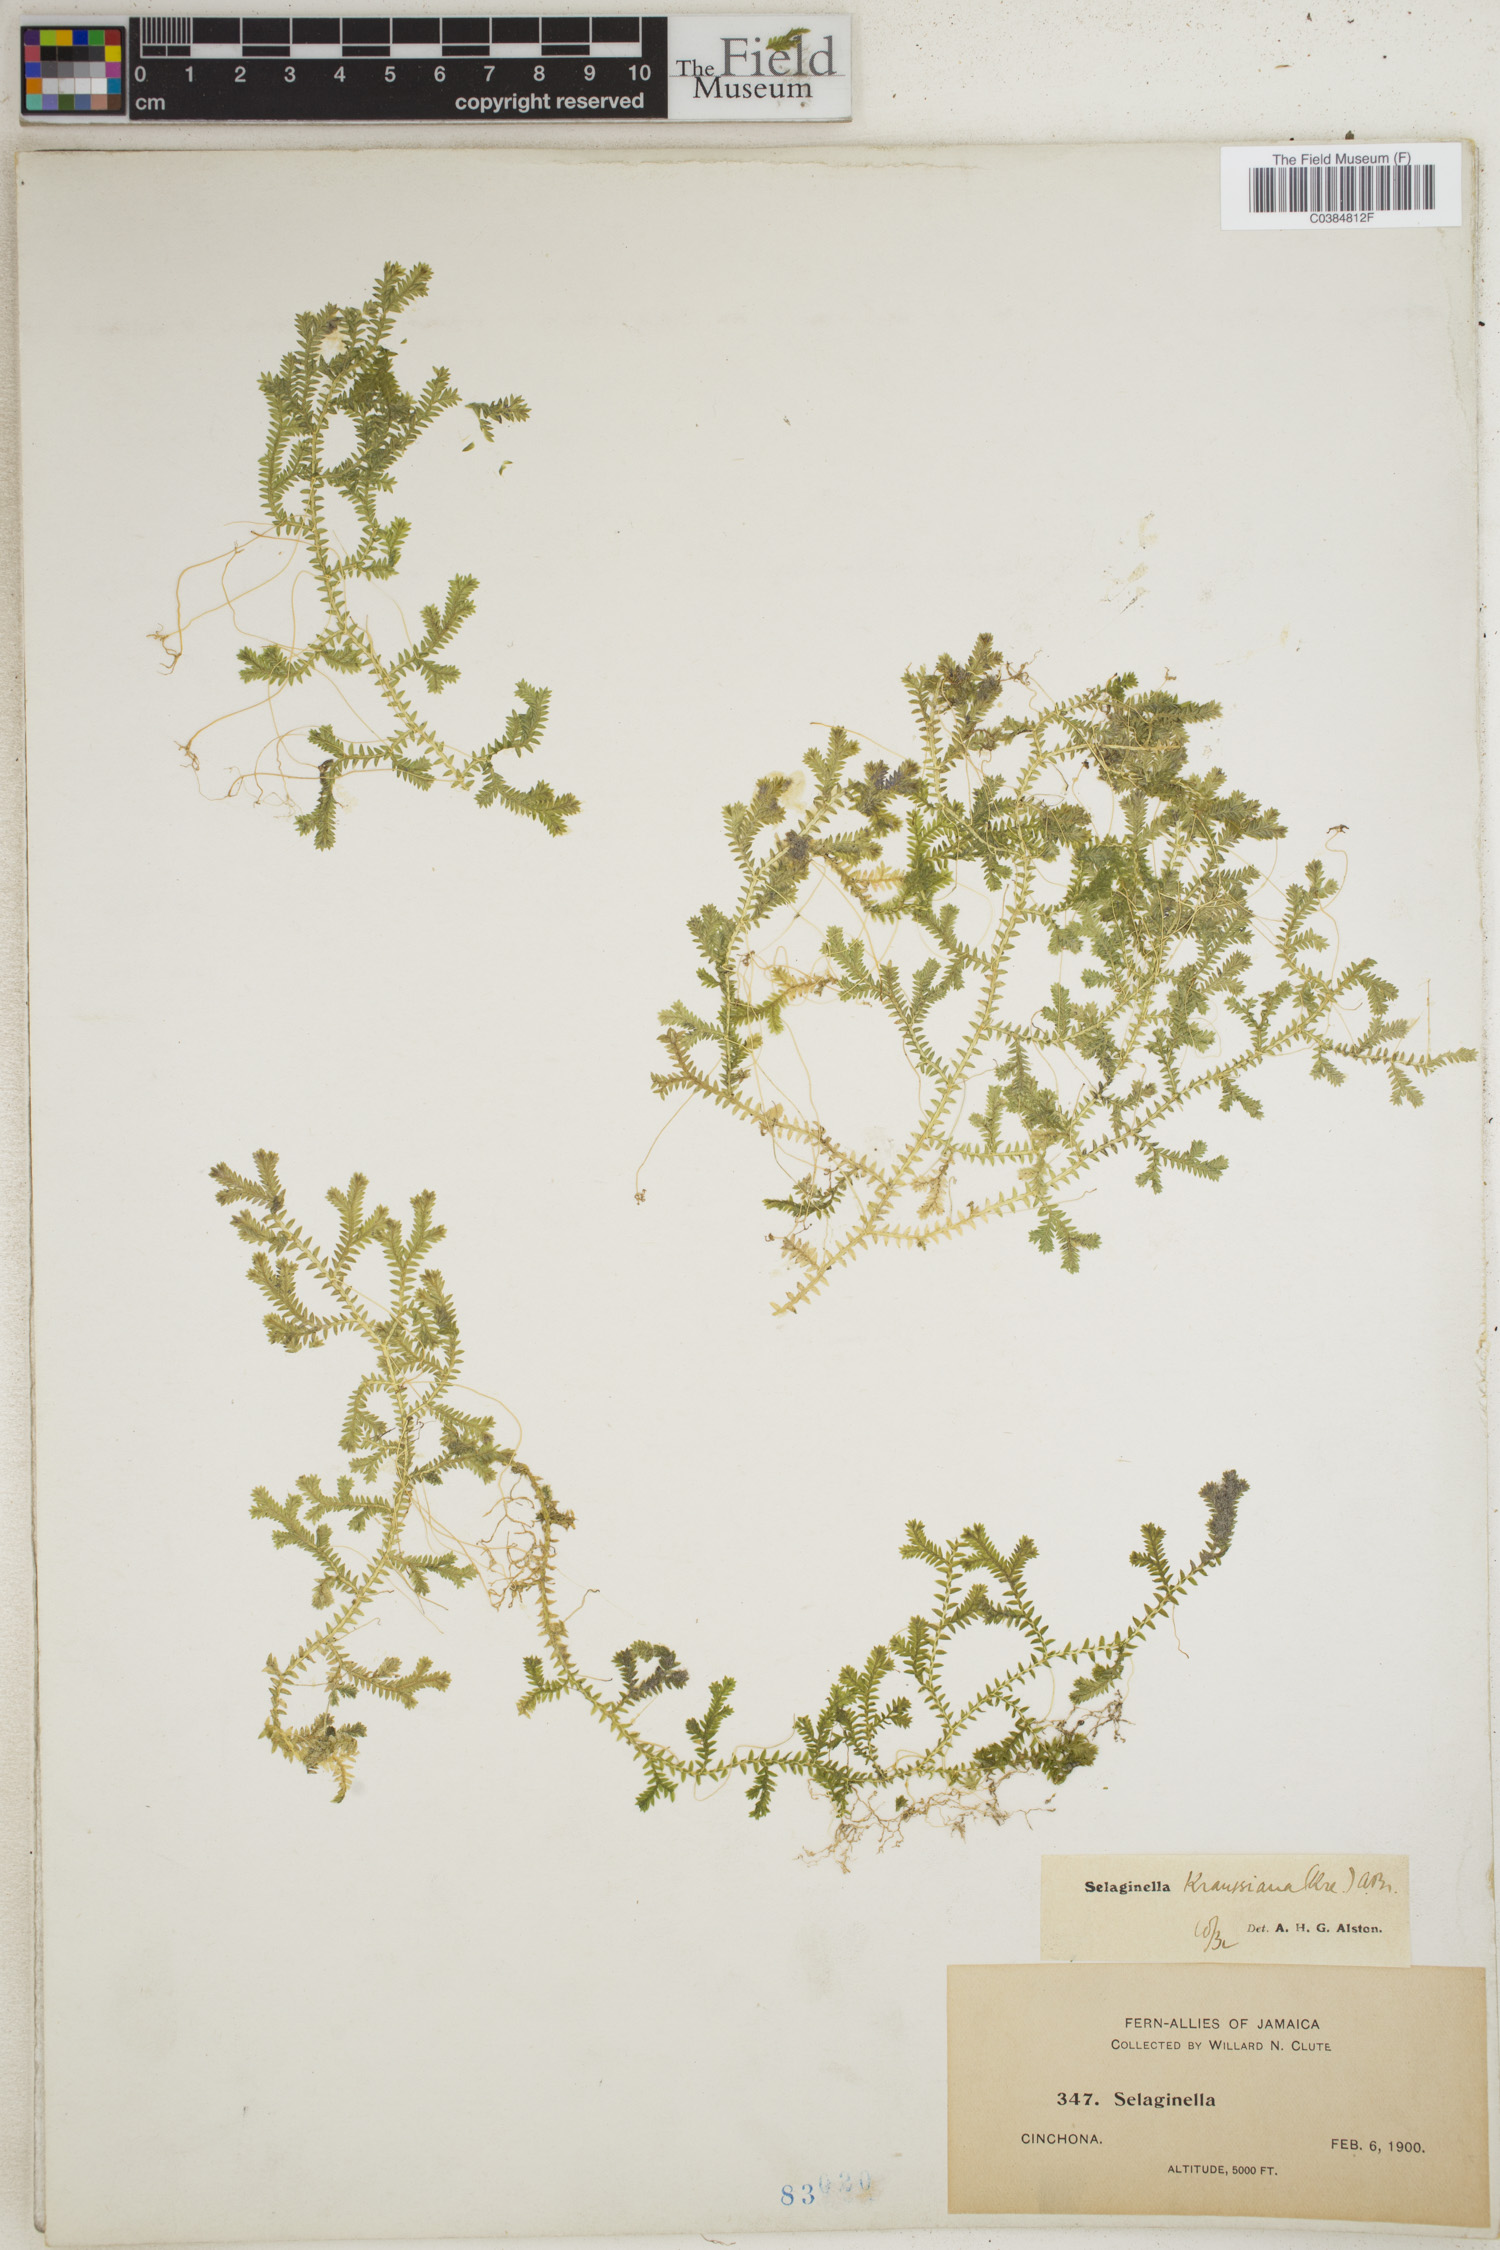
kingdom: Plantae
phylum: Tracheophyta
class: Lycopodiopsida
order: Selaginellales
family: Selaginellaceae
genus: Selaginella
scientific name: Selaginella kraussiana
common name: Krauss' spikemoss
